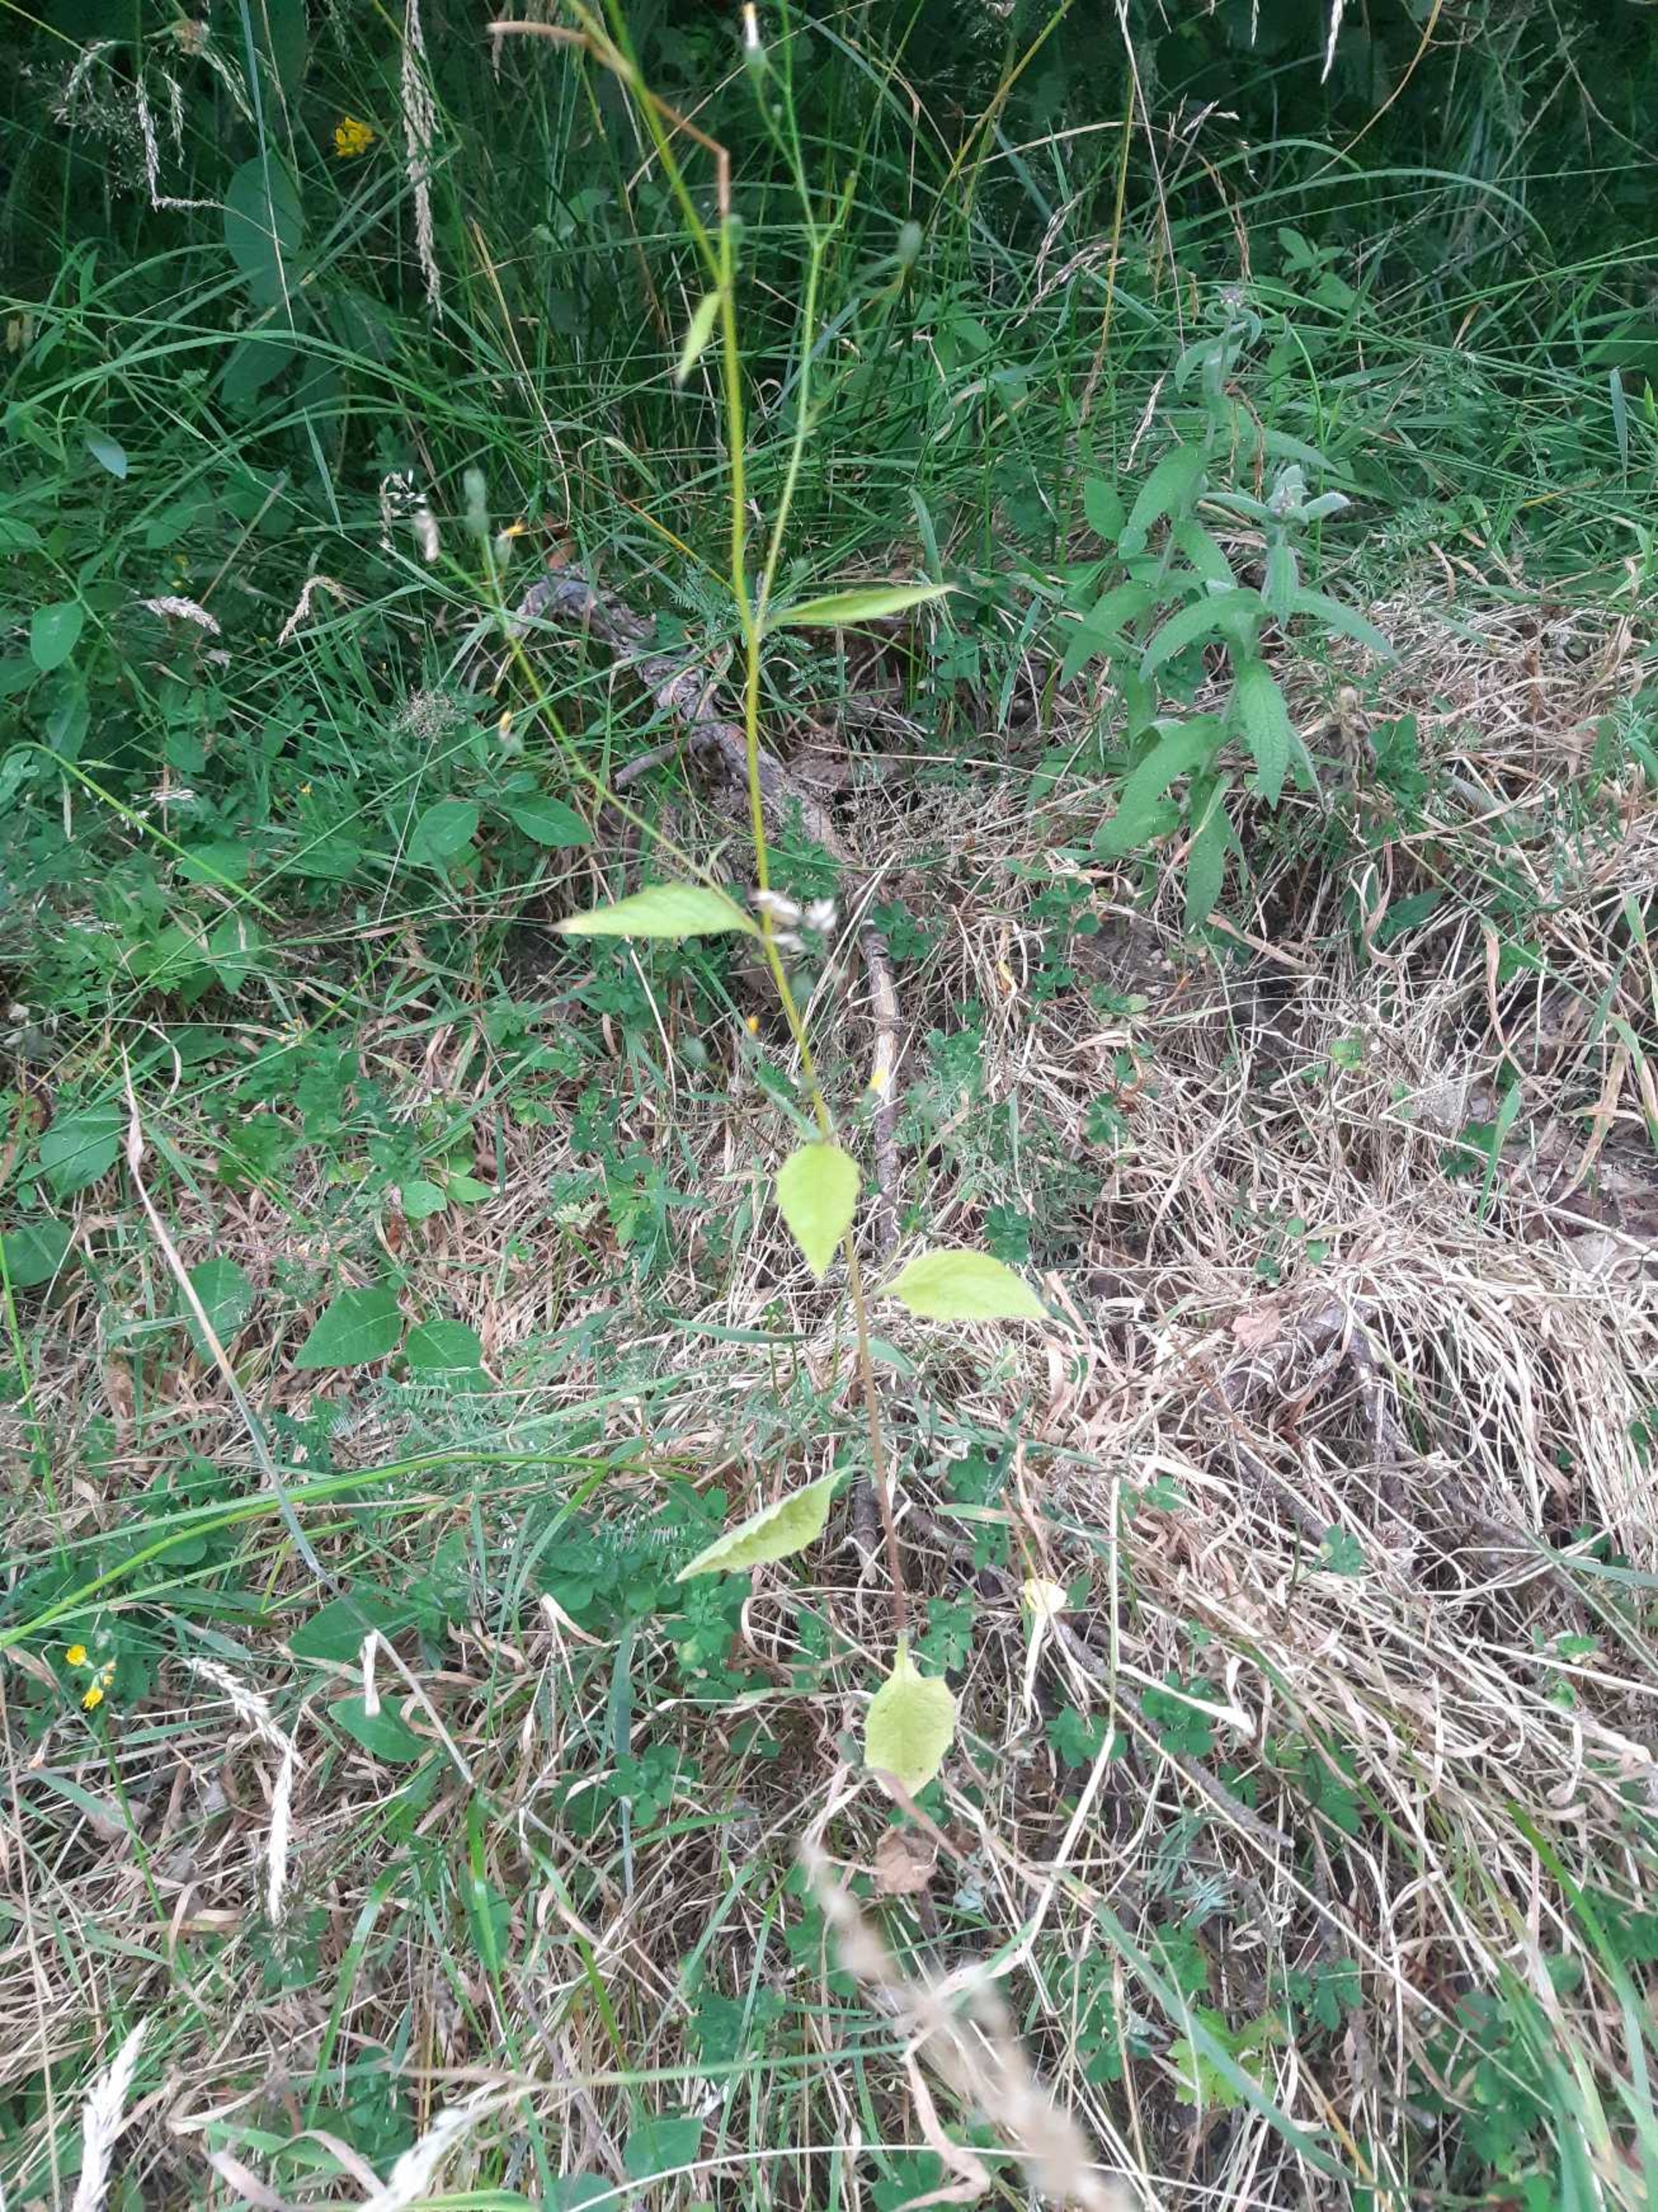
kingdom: Plantae
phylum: Tracheophyta
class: Magnoliopsida
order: Asterales
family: Asteraceae
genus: Lapsana
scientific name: Lapsana communis
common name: Haremad
